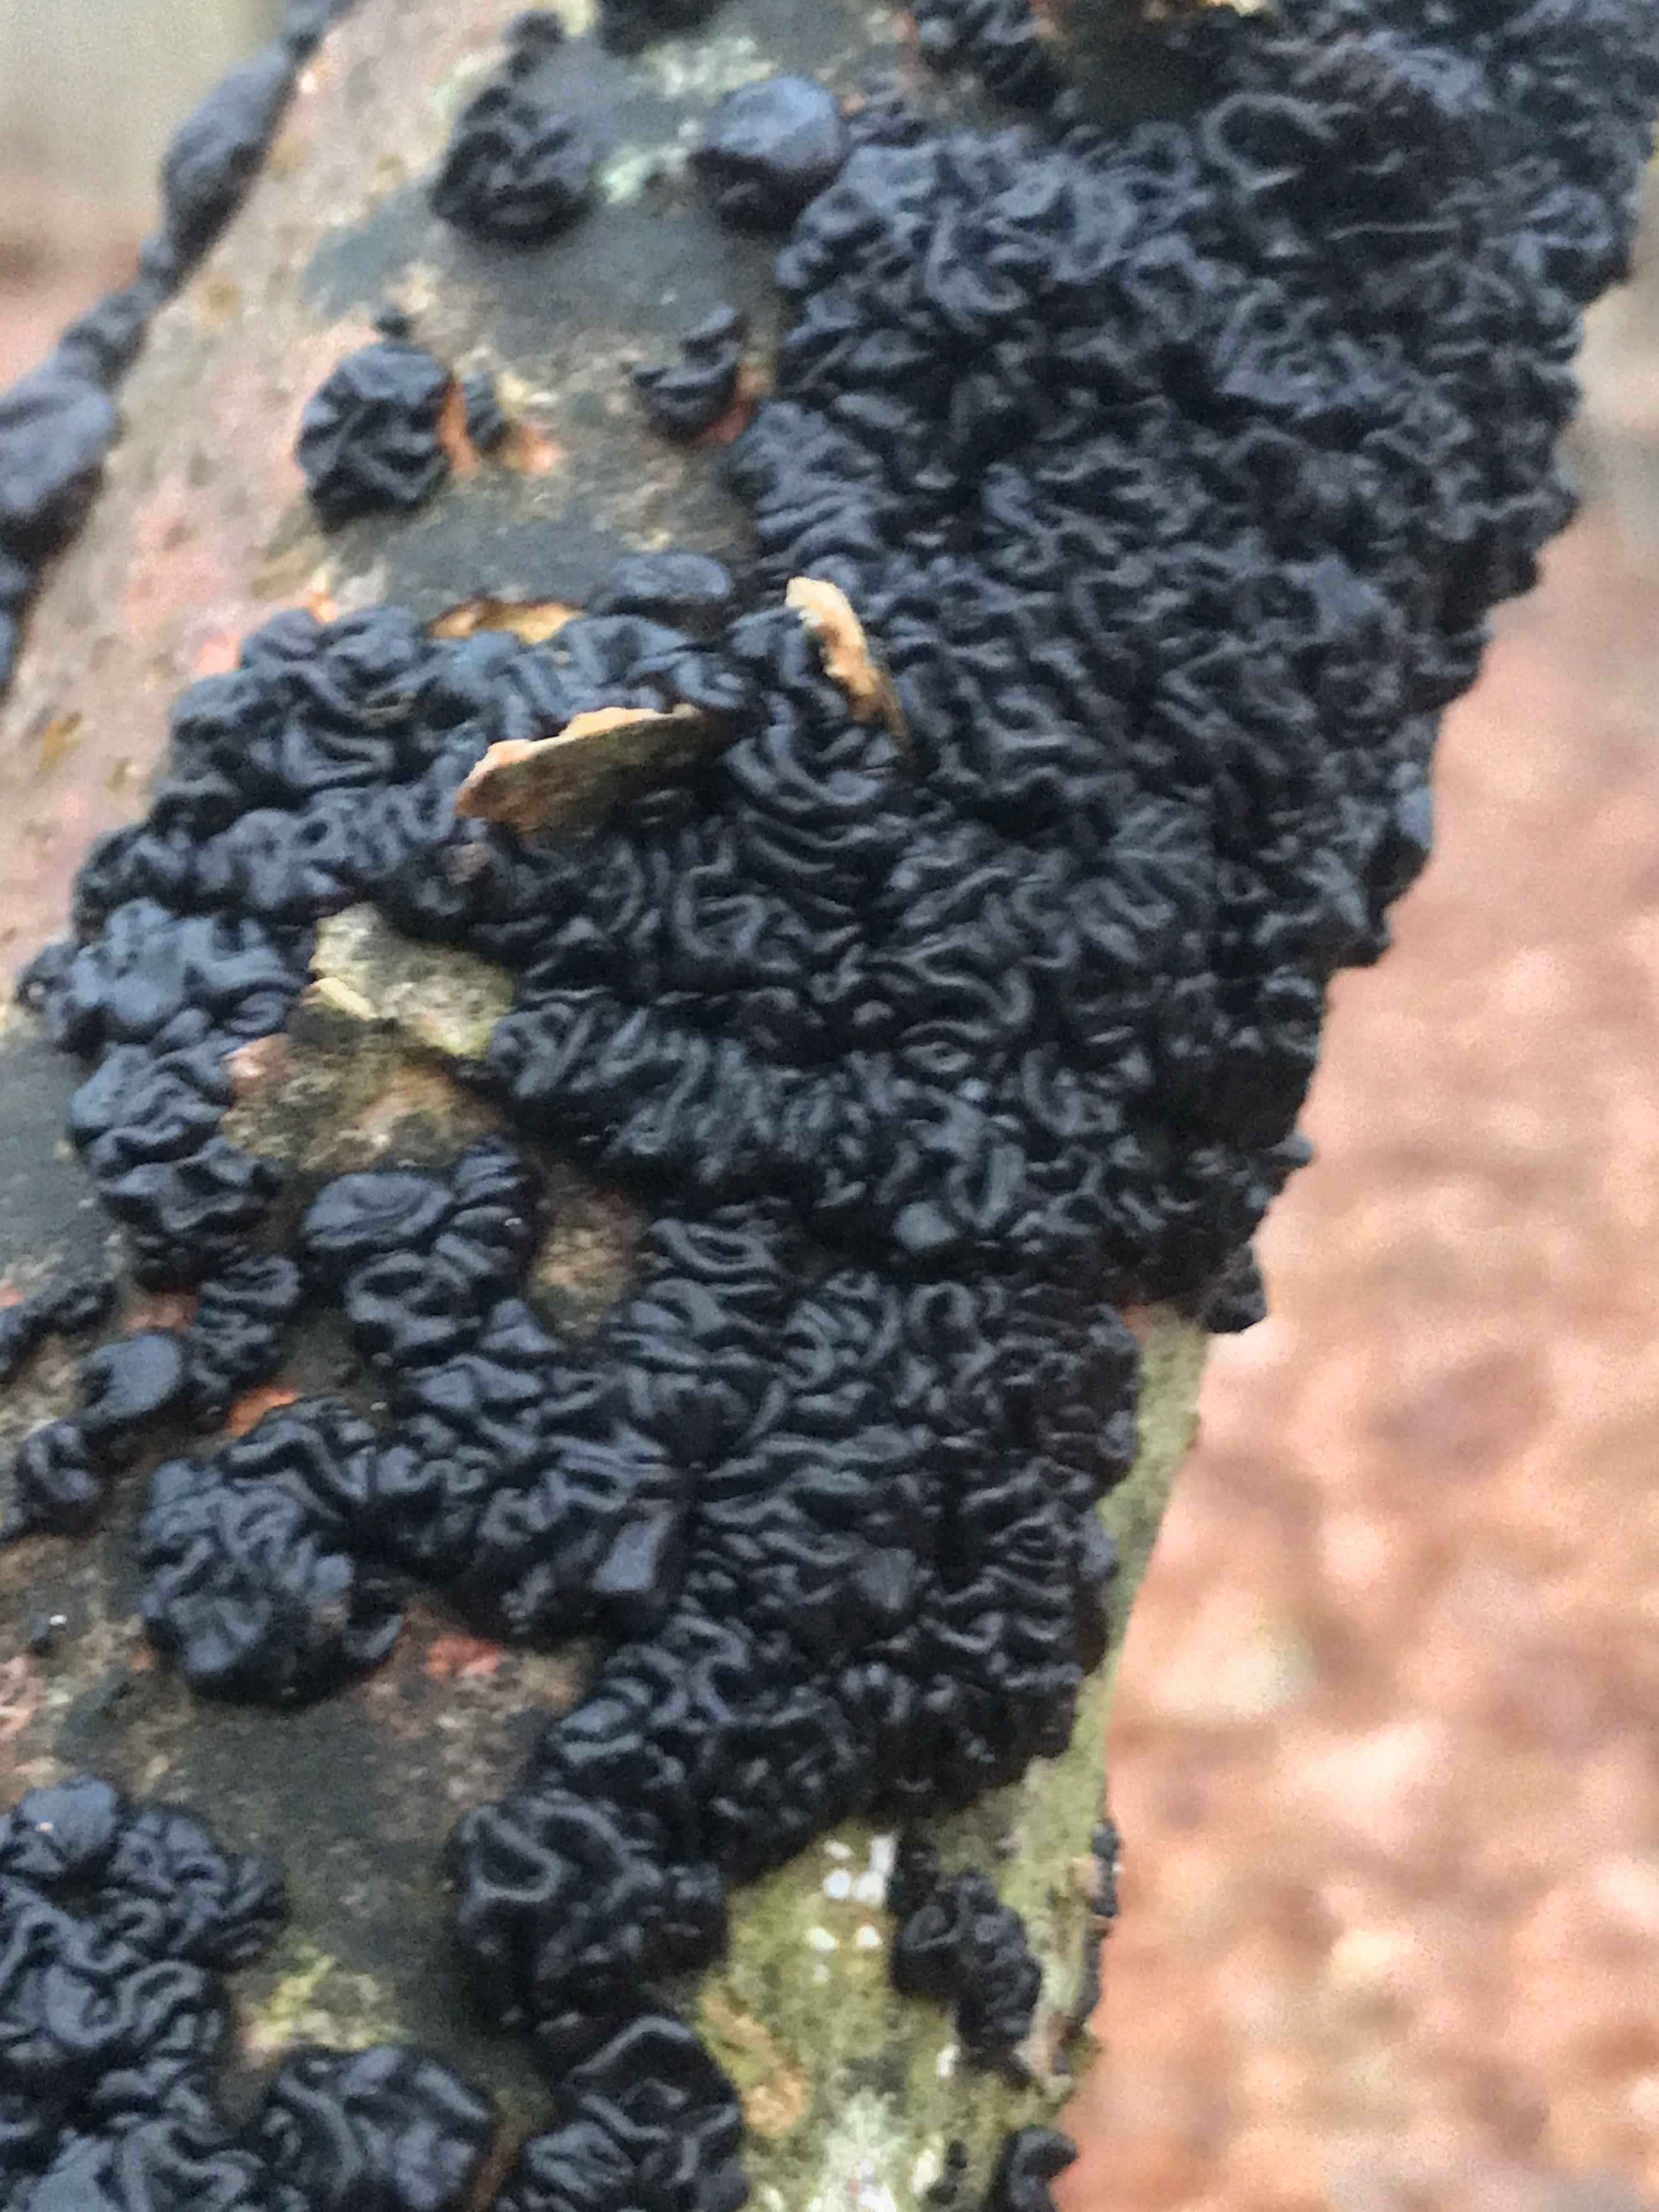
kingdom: Fungi
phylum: Basidiomycota
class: Agaricomycetes
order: Auriculariales
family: Auriculariaceae
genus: Exidia
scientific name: Exidia nigricans
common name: almindelig bævretop
